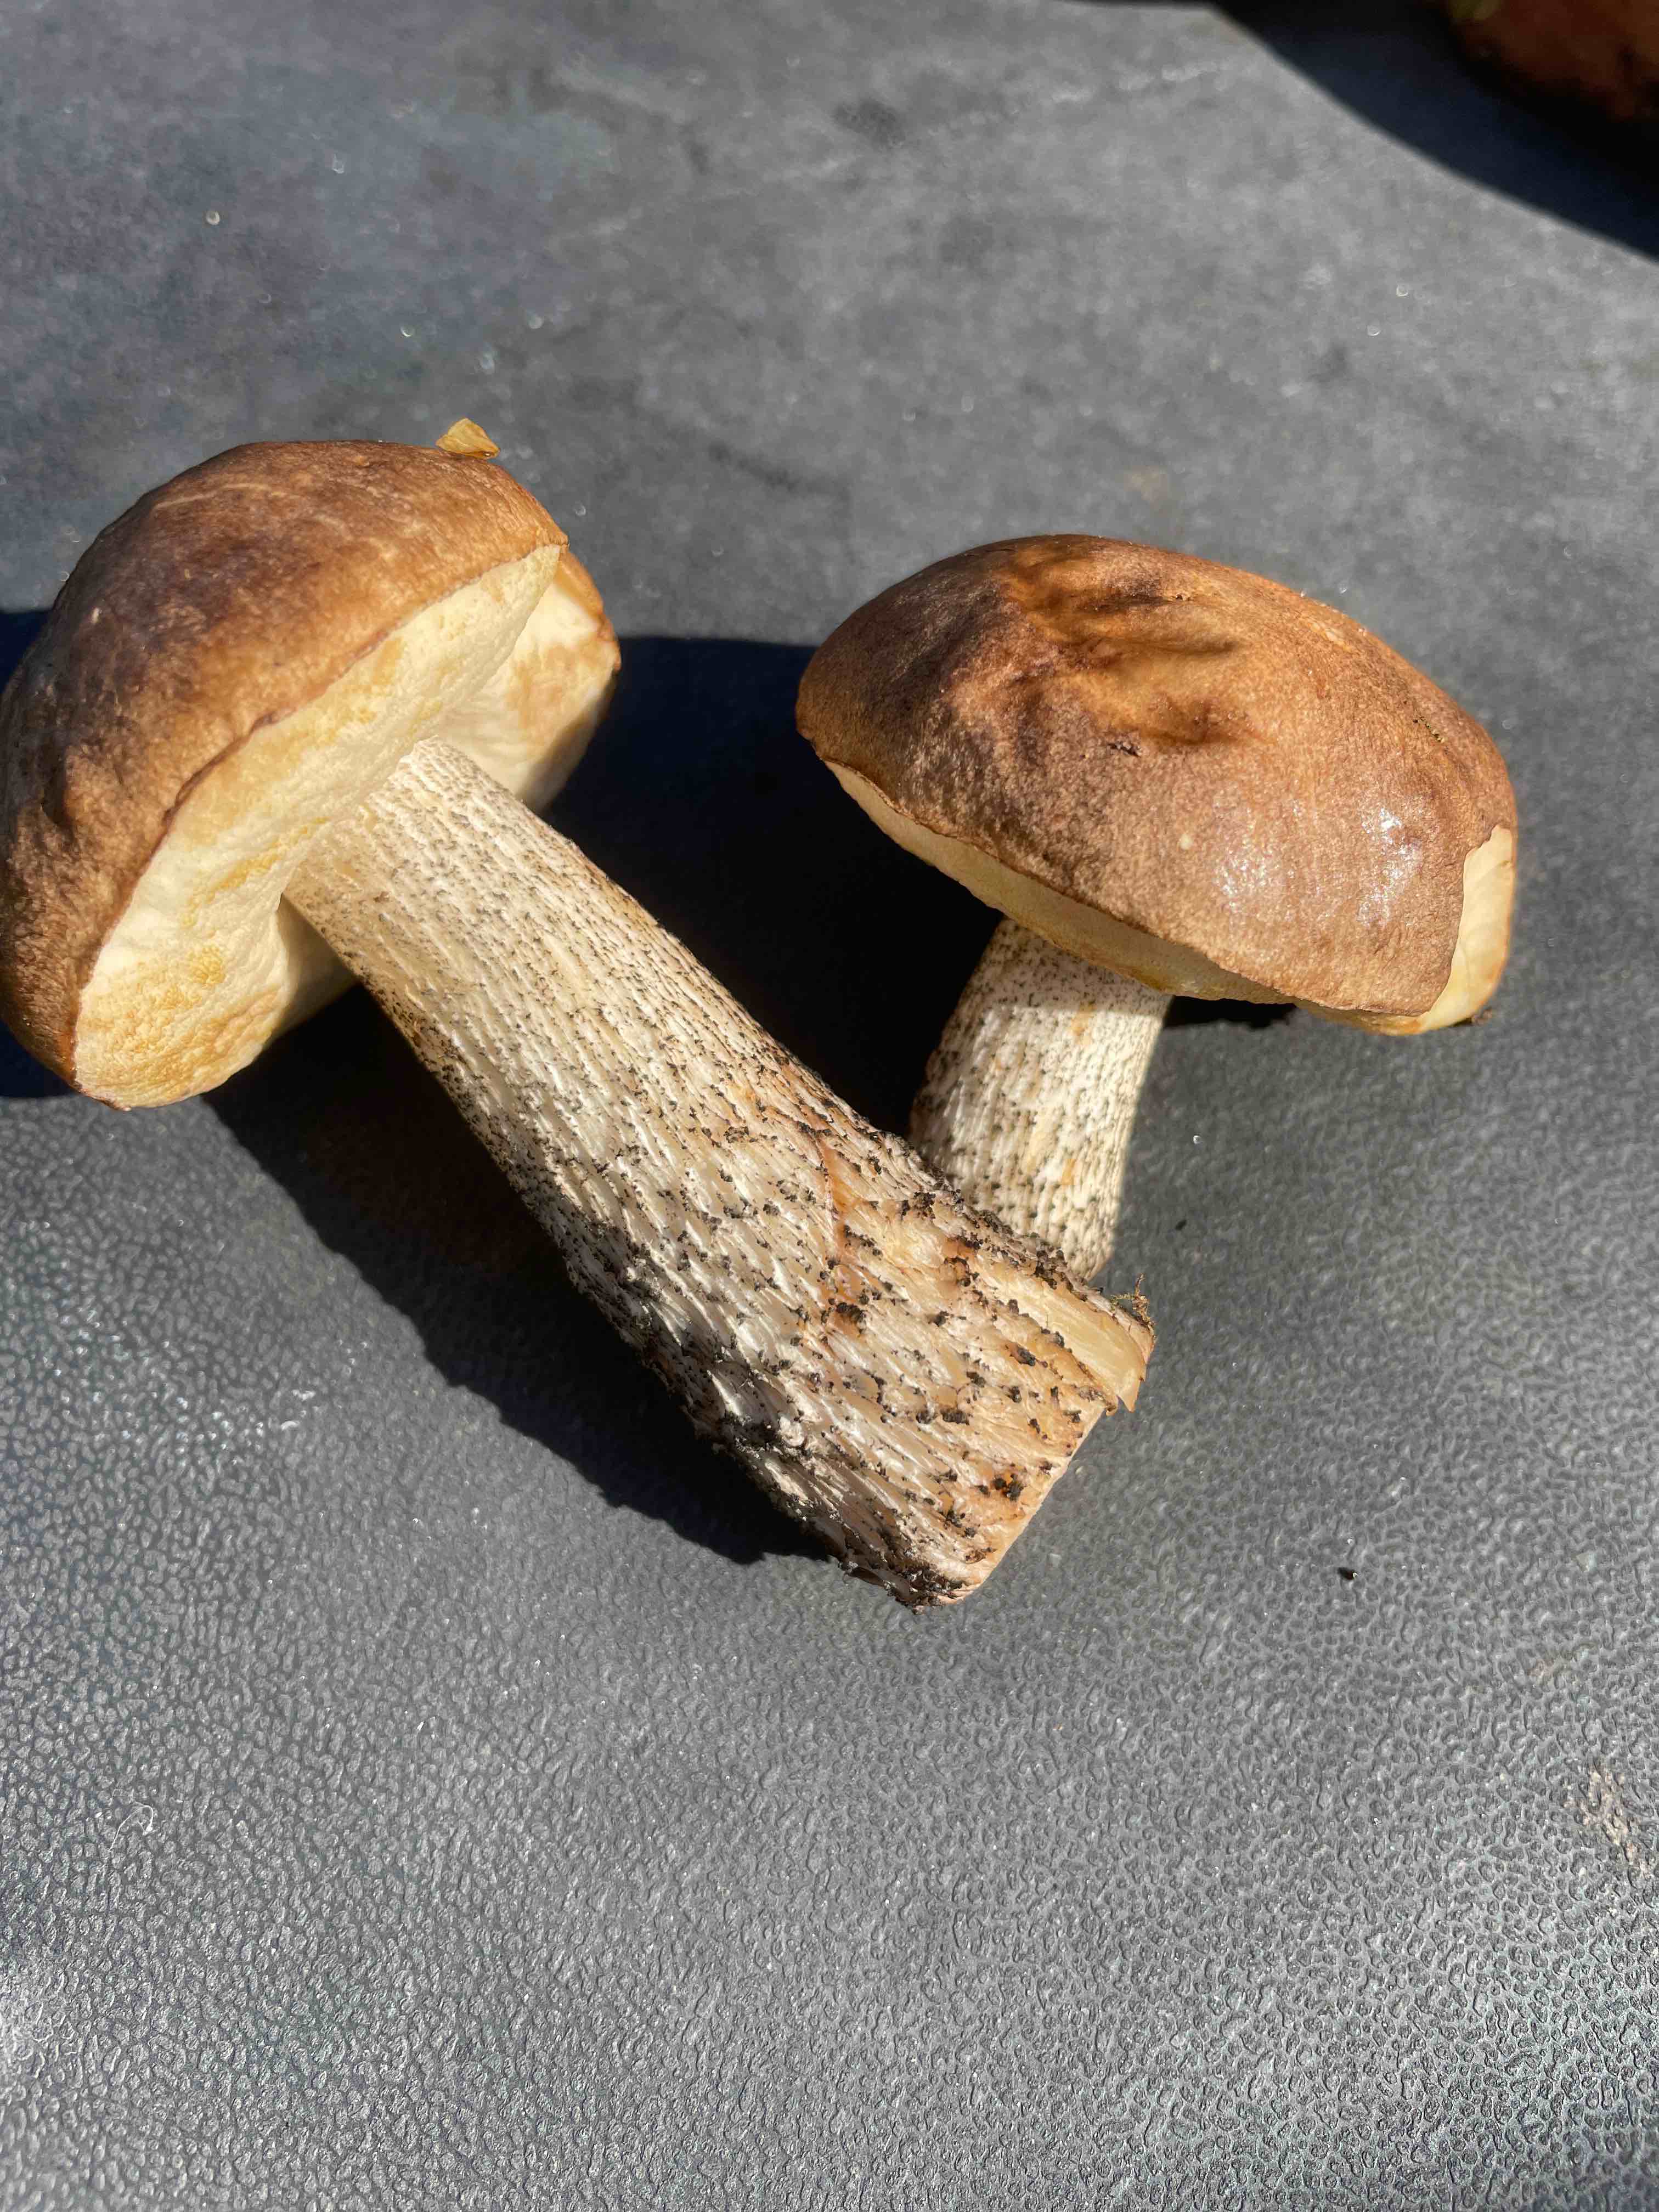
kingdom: Fungi
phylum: Basidiomycota
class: Agaricomycetes
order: Boletales
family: Boletaceae
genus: Leccinum
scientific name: Leccinum scabrum
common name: brun skælrørhat
